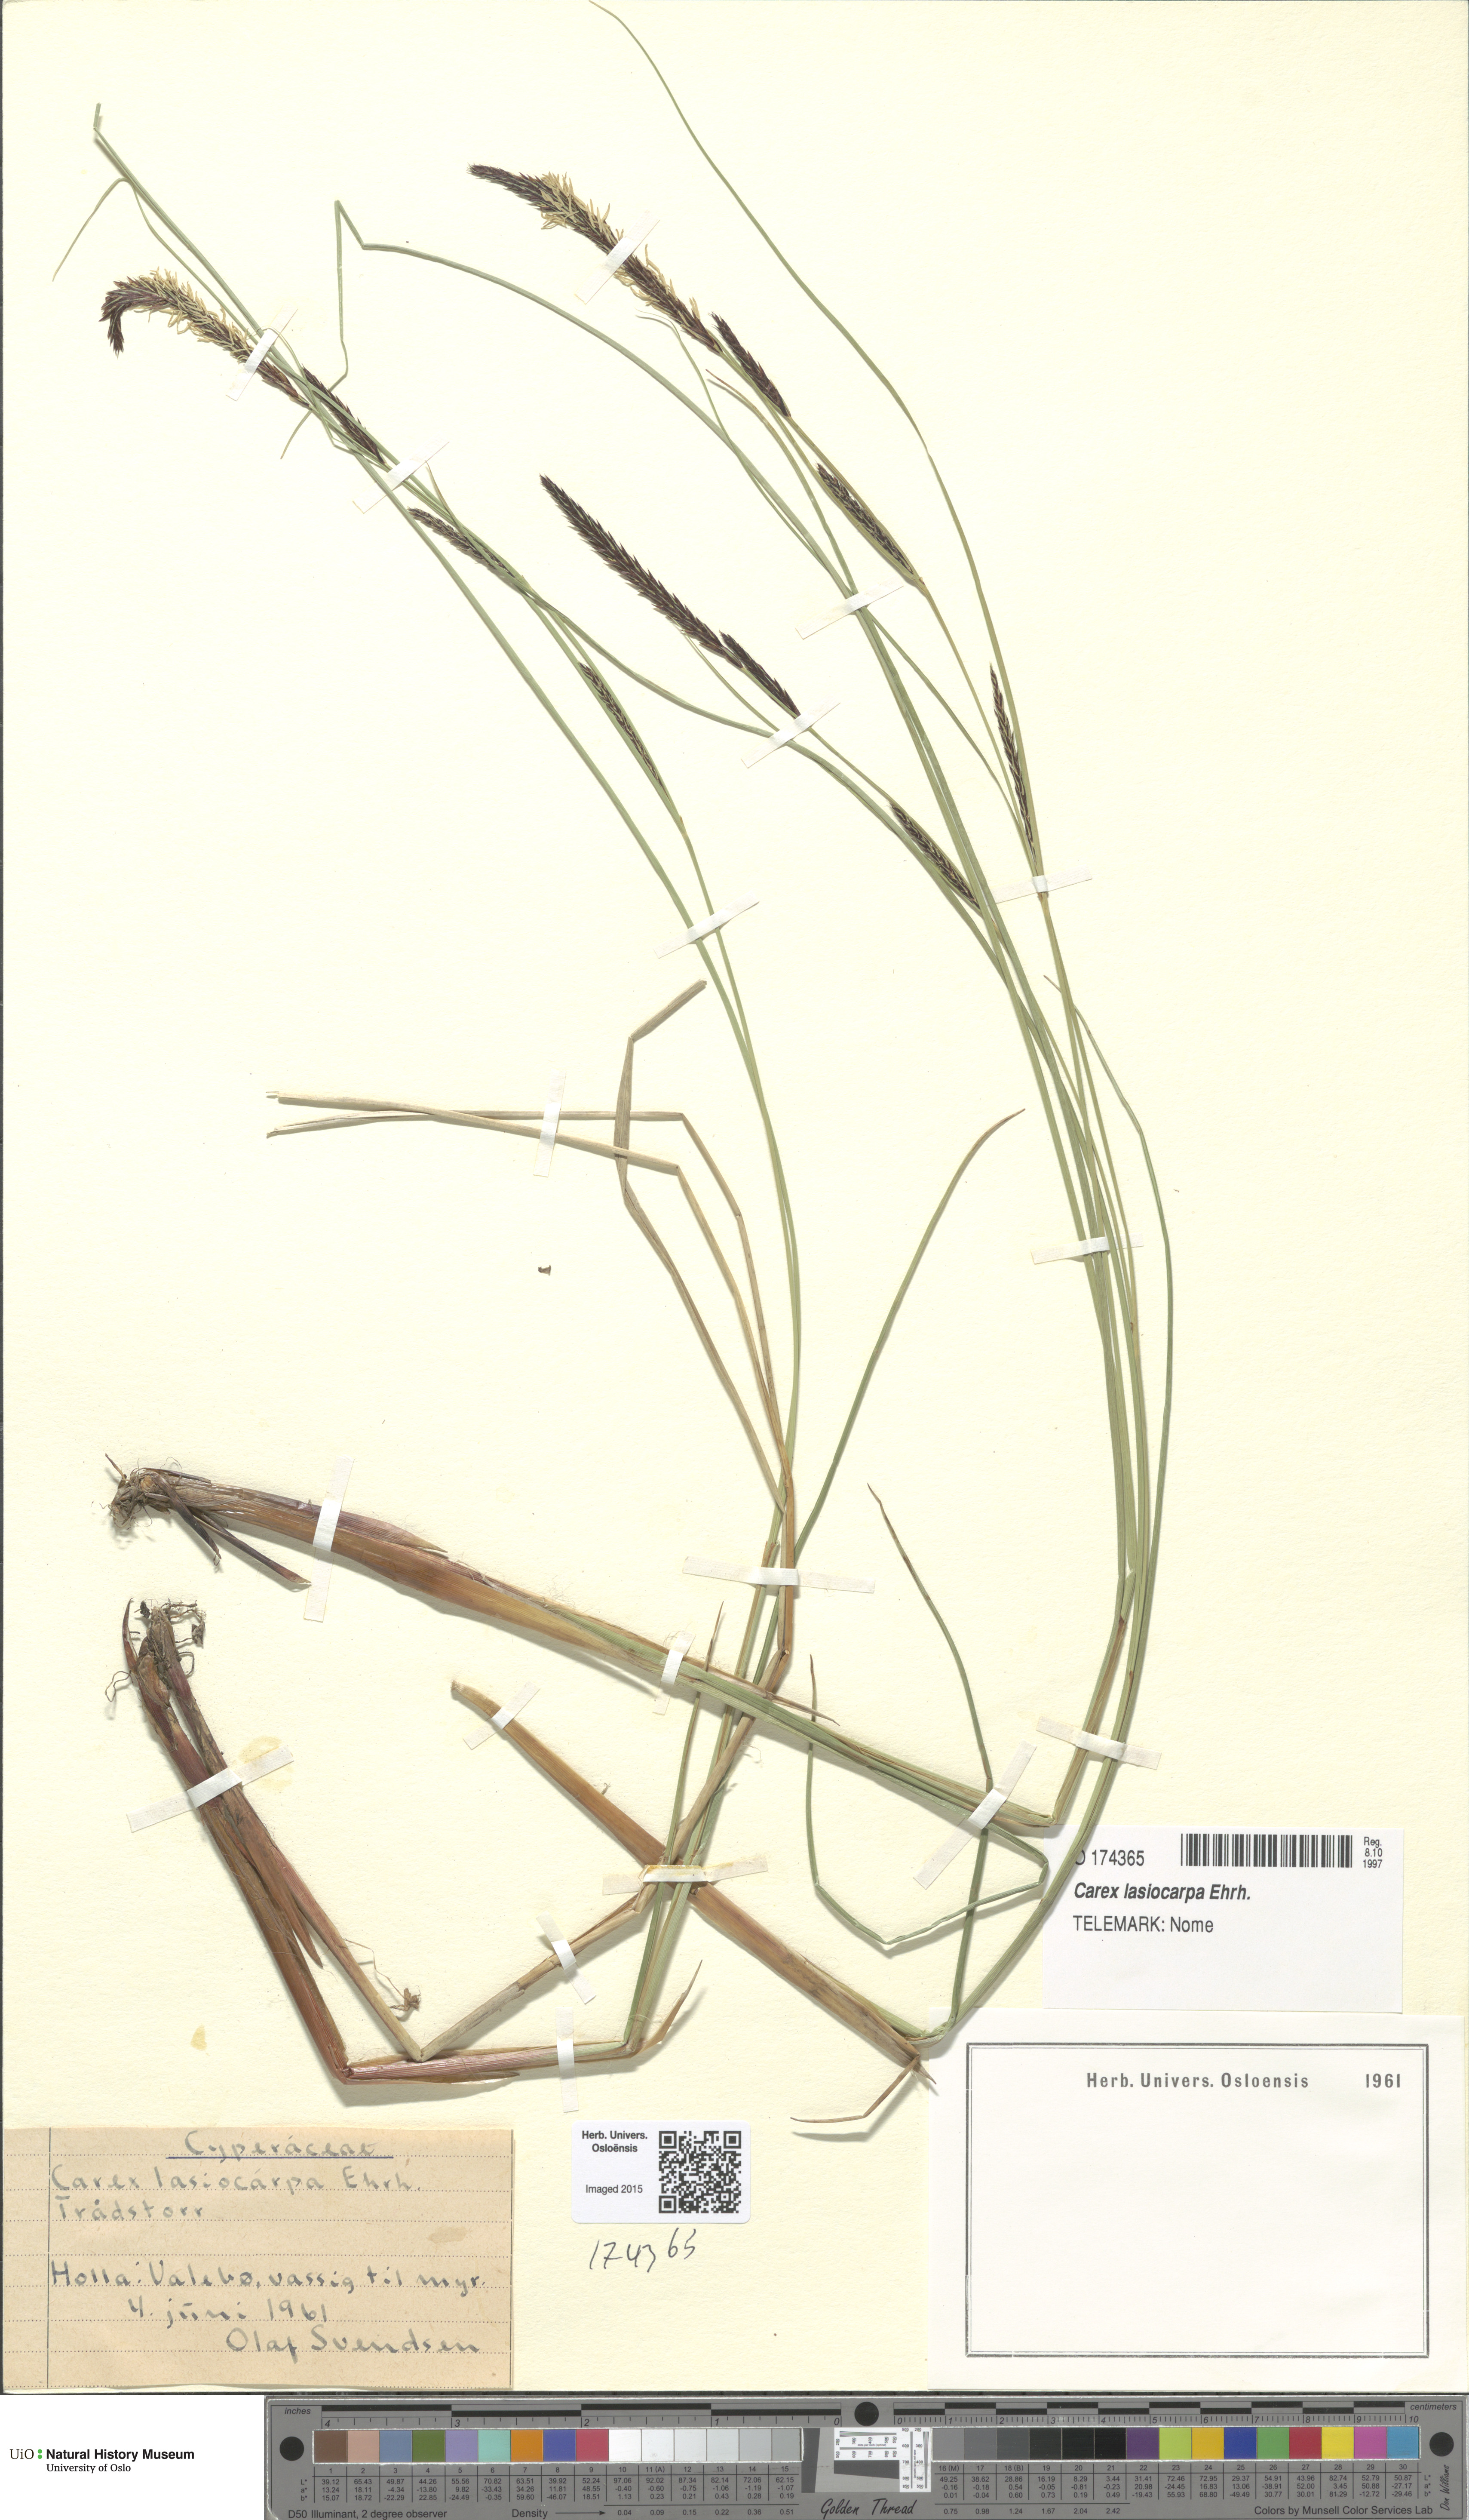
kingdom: Plantae
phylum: Tracheophyta
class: Liliopsida
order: Poales
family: Cyperaceae
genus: Carex
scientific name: Carex lasiocarpa
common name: Slender sedge
